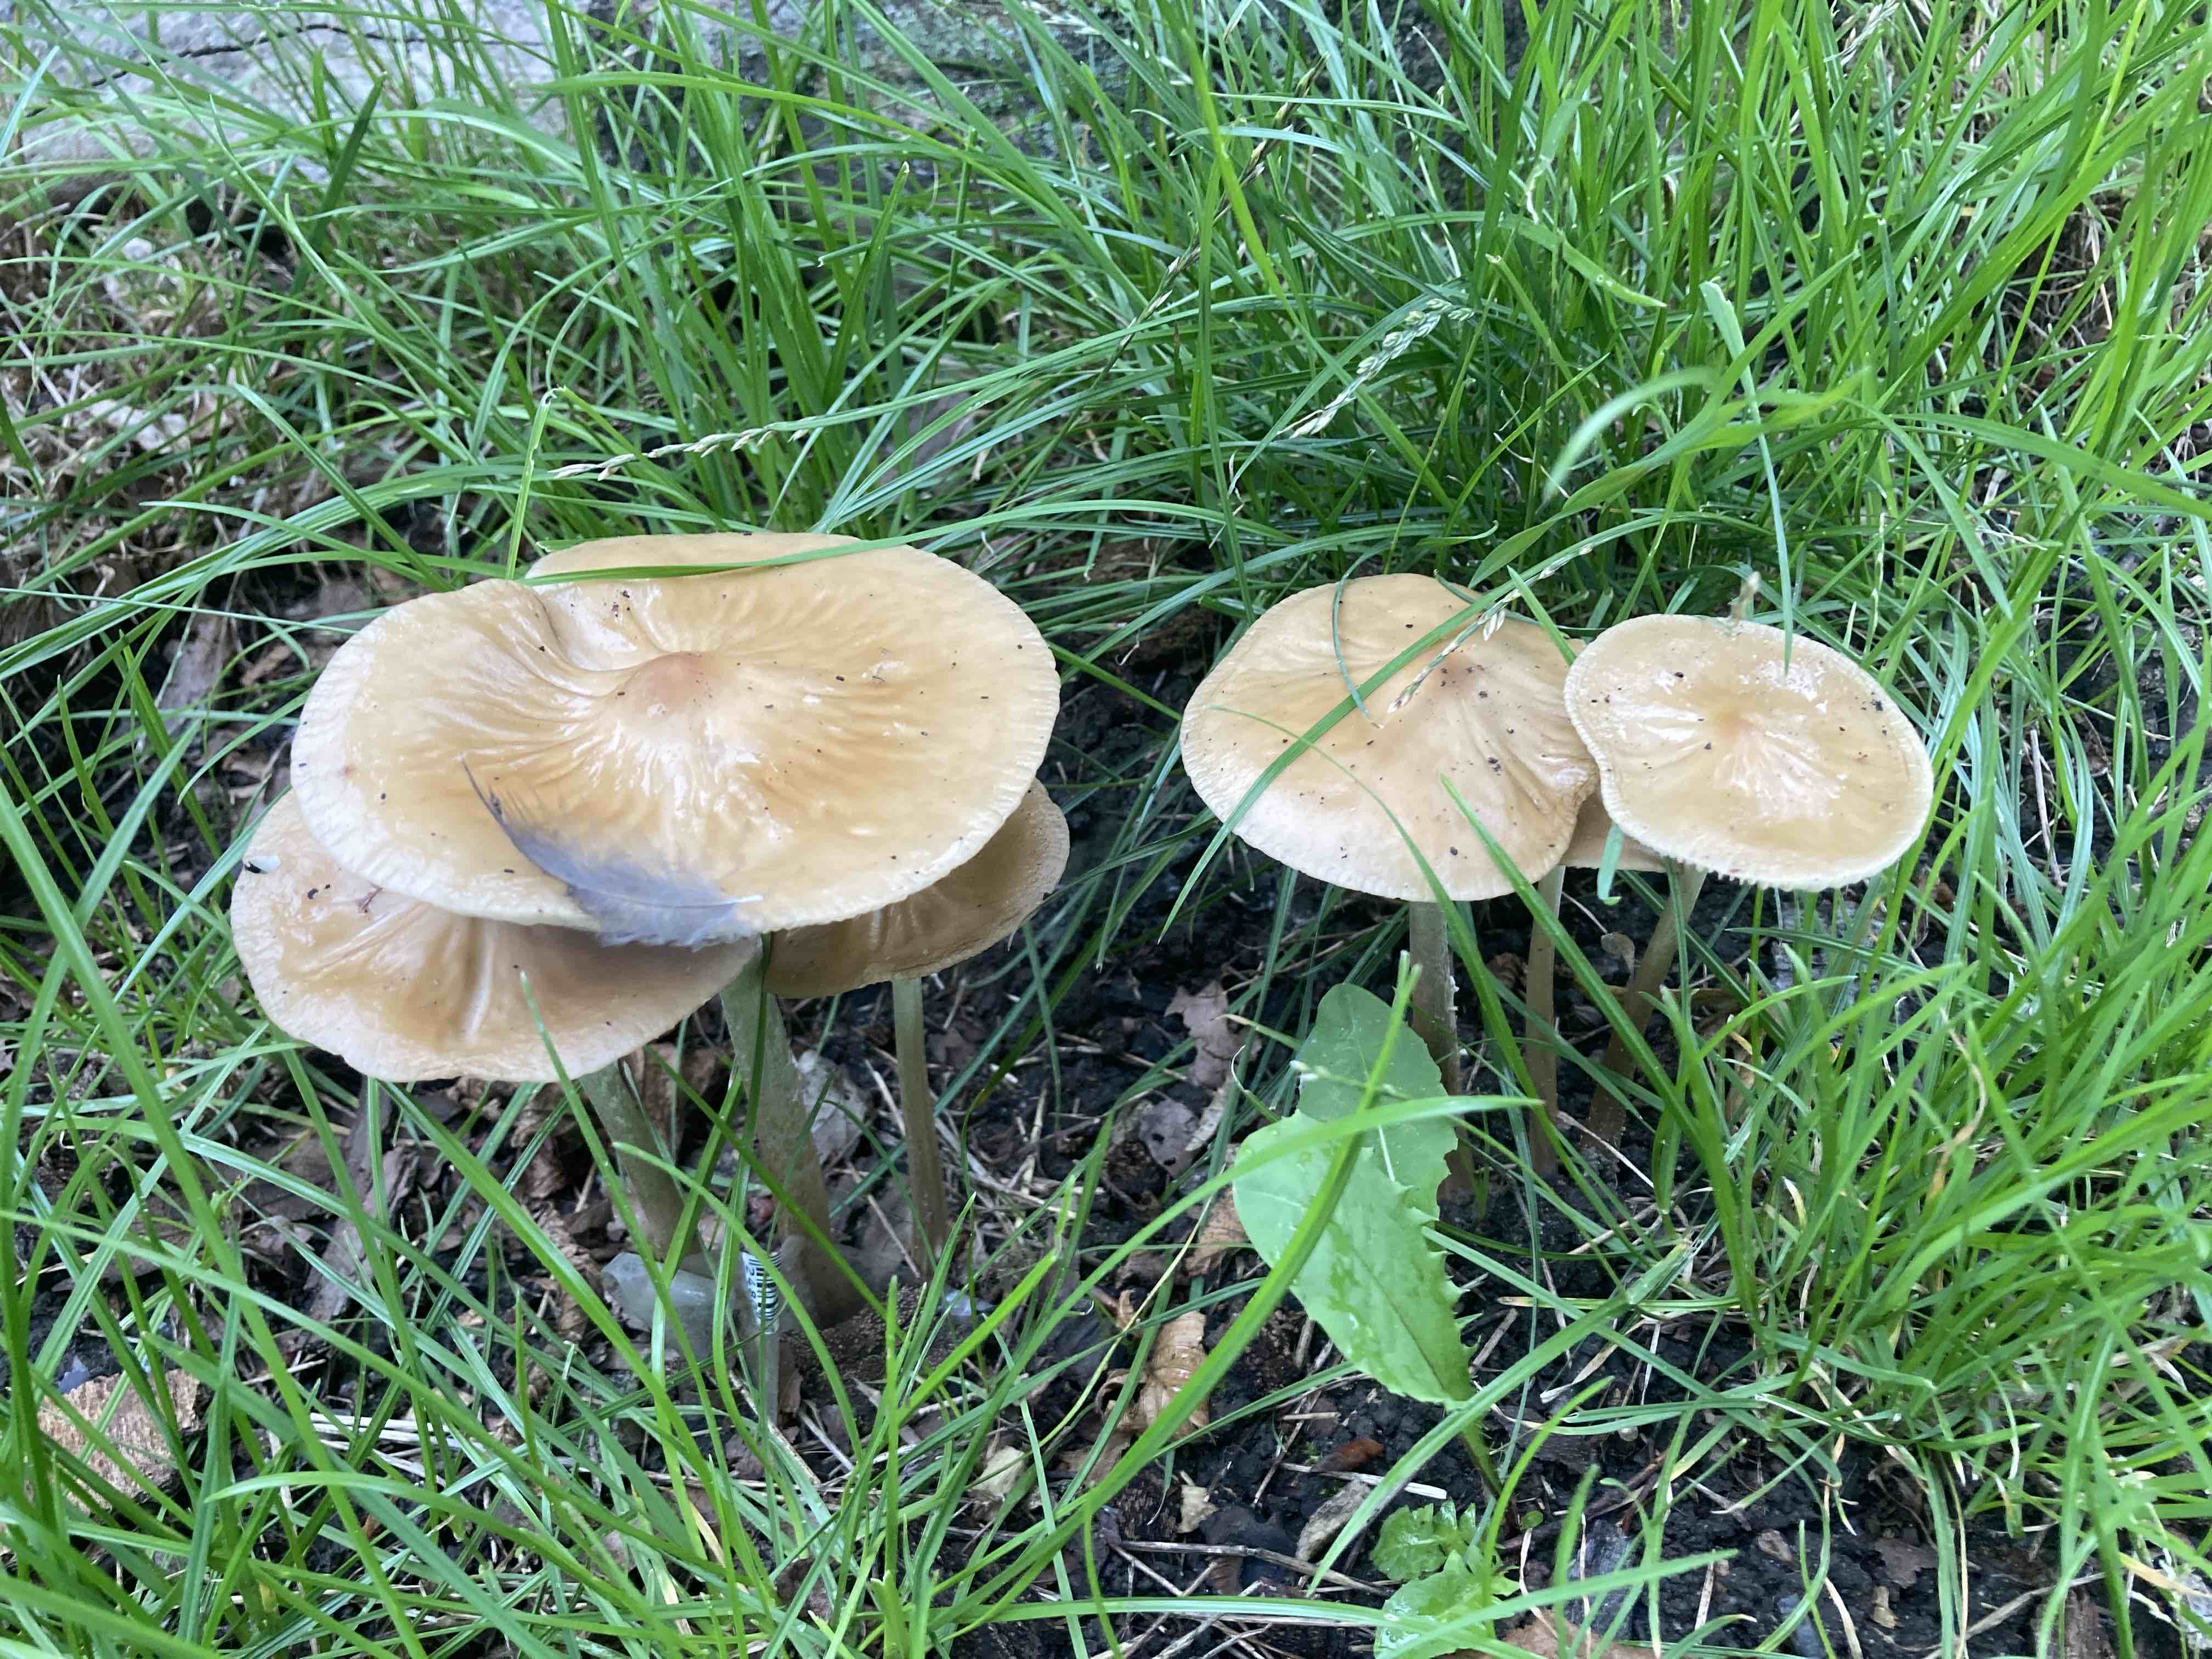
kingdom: Fungi
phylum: Basidiomycota
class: Agaricomycetes
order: Agaricales
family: Physalacriaceae
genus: Hymenopellis
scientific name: Hymenopellis radicata
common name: almindelig pælerodshat
